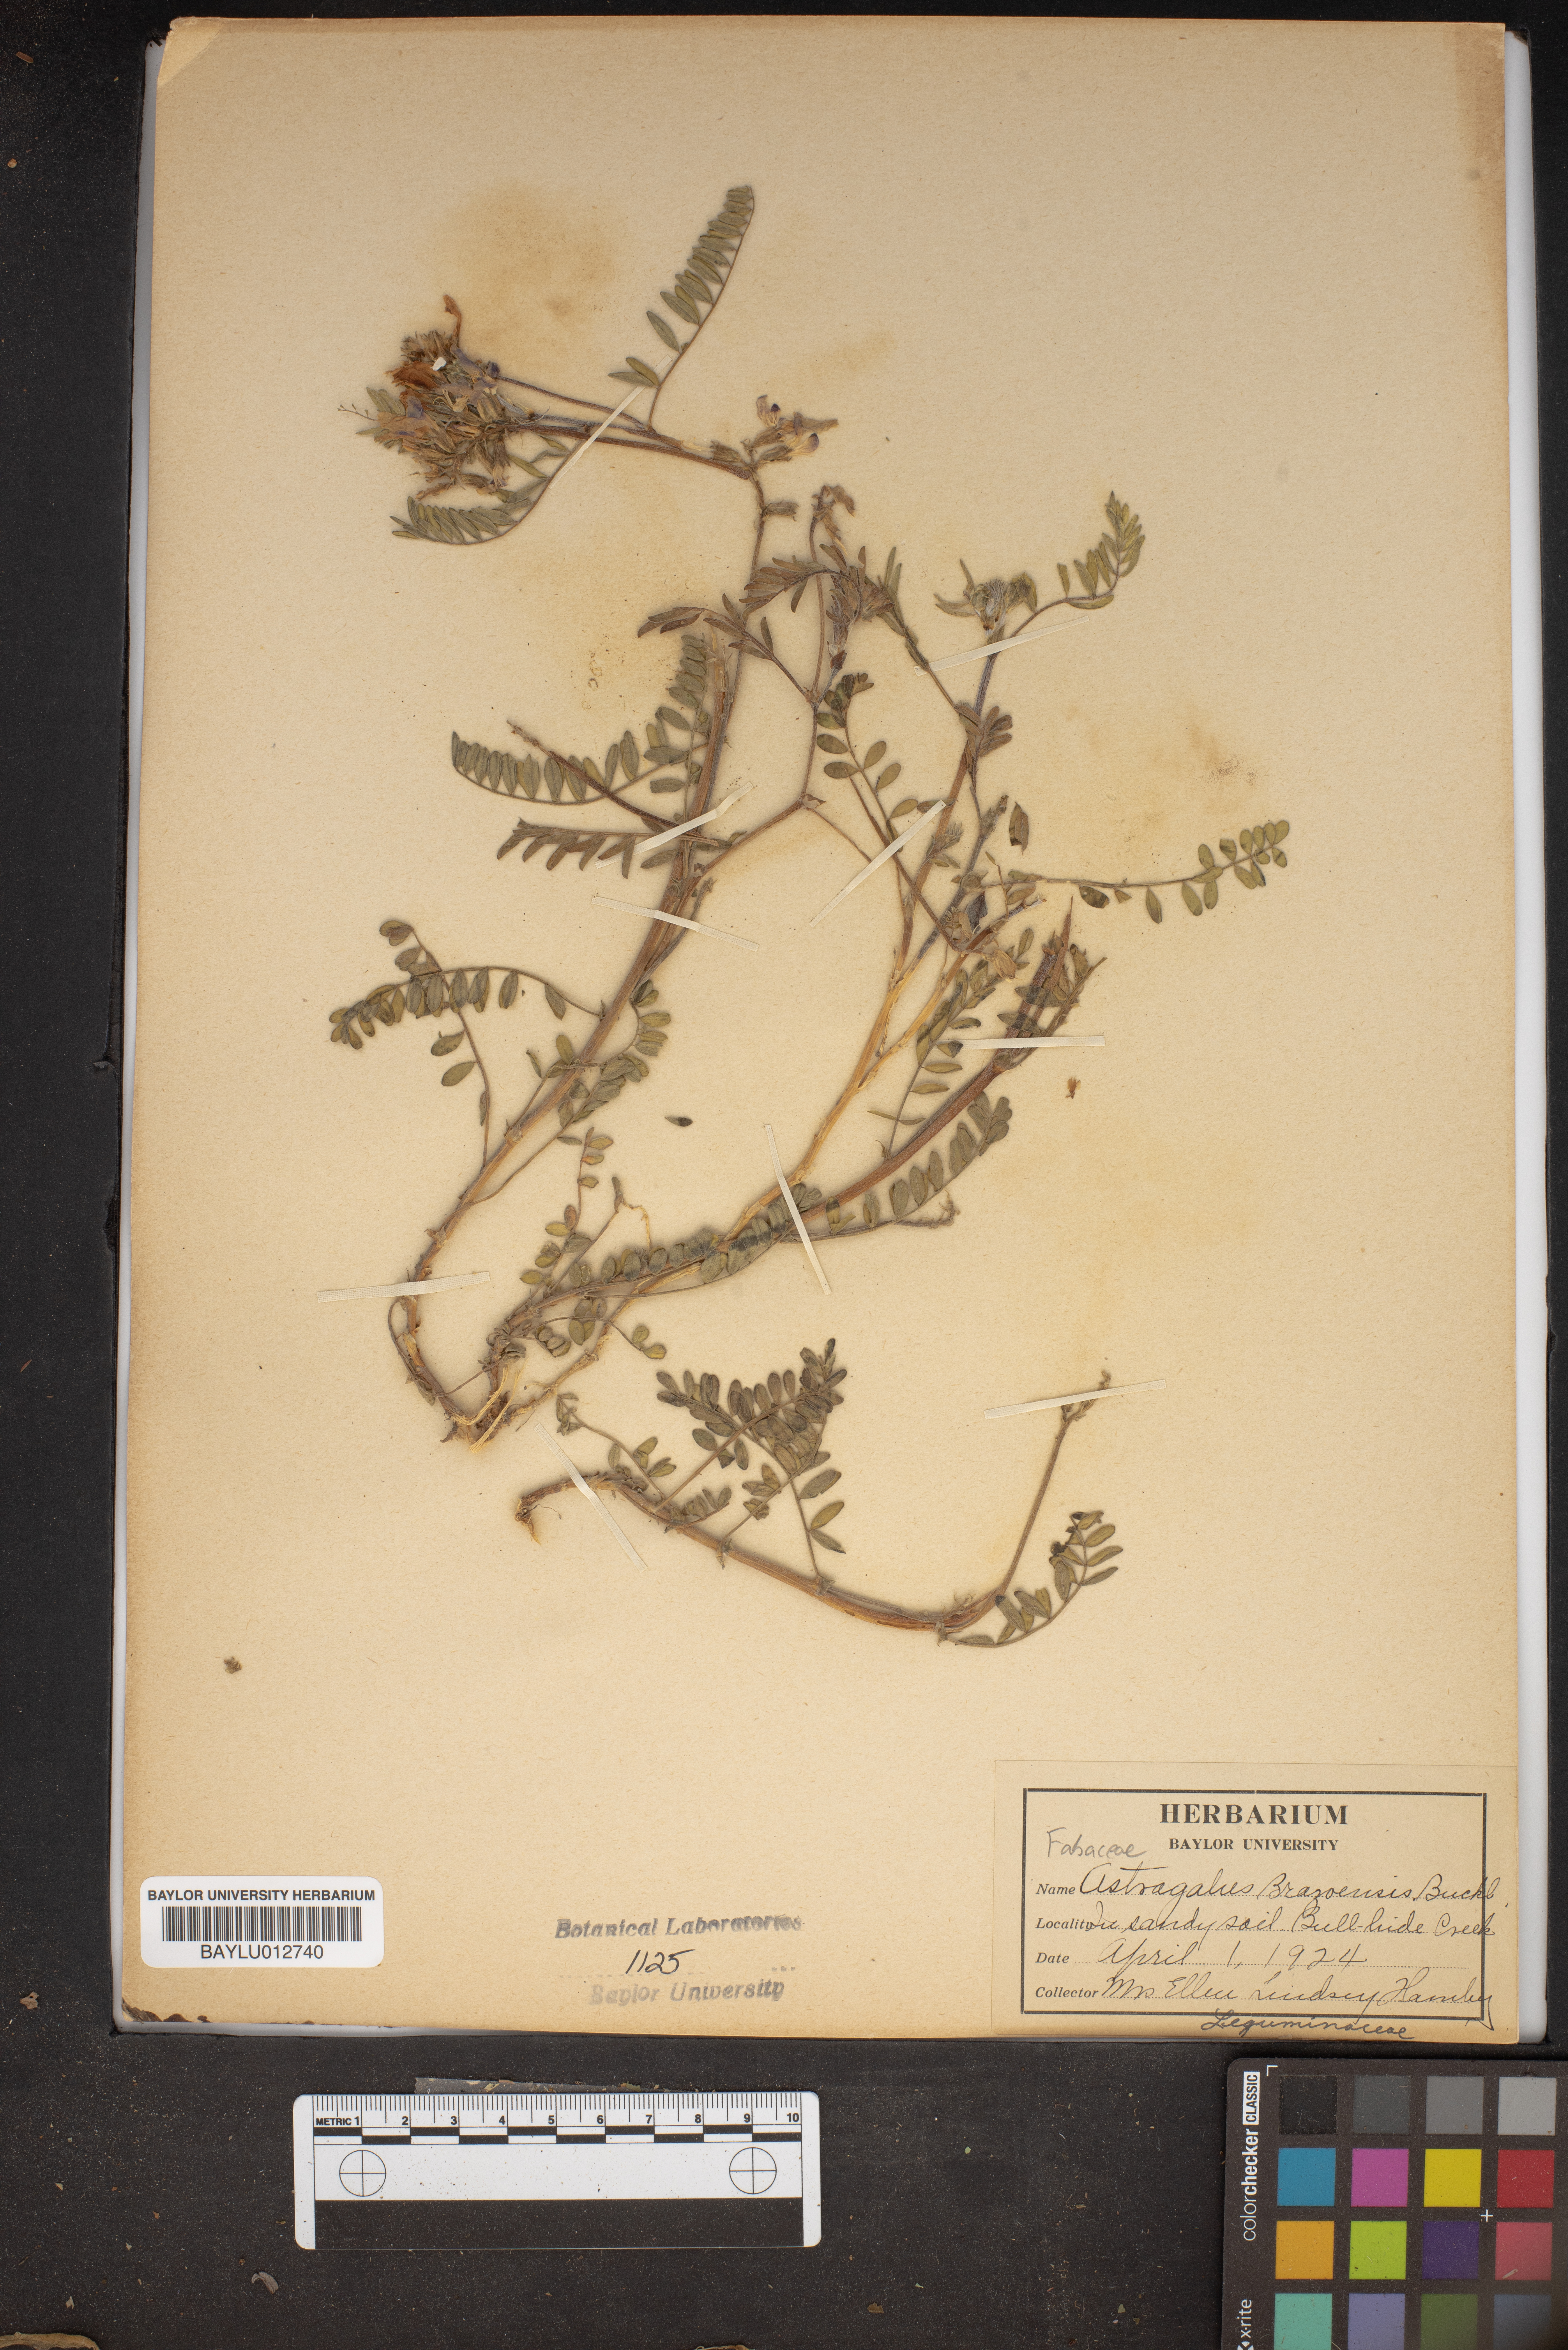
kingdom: Plantae
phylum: Tracheophyta
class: Magnoliopsida
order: Fabales
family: Fabaceae
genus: Astragalus
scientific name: Astragalus brazoensis
